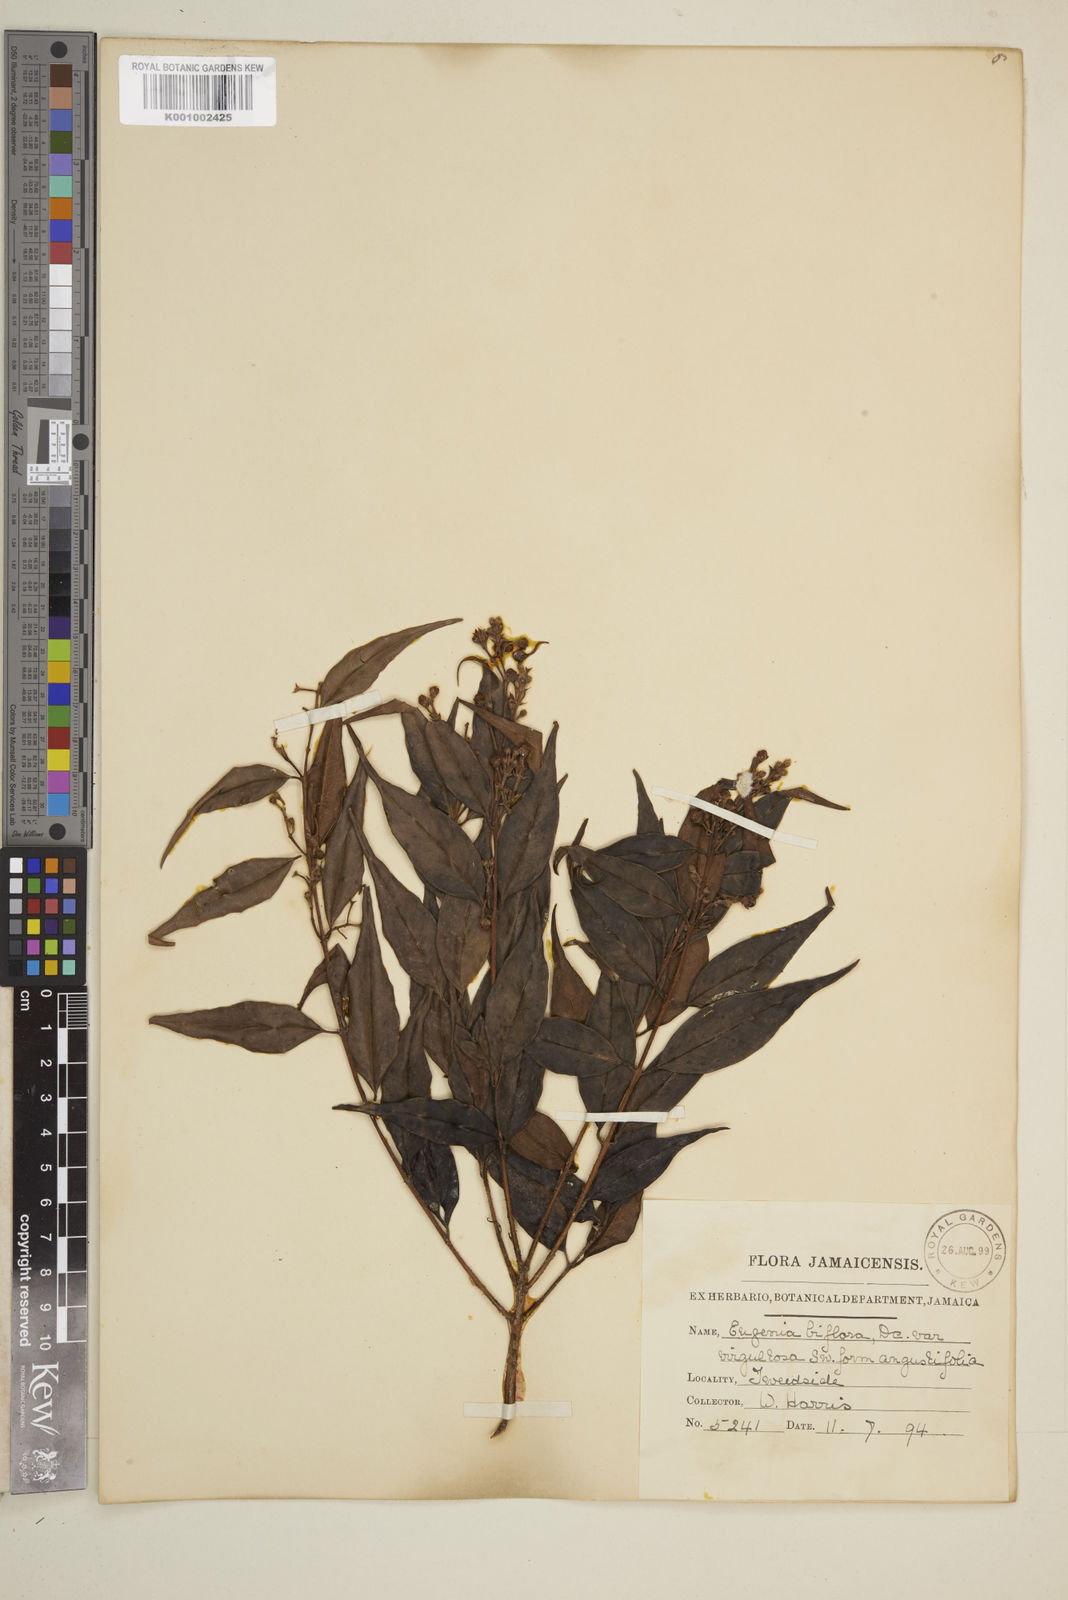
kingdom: Plantae
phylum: Tracheophyta
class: Magnoliopsida
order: Myrtales
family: Myrtaceae
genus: Eugenia
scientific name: Eugenia biflora
